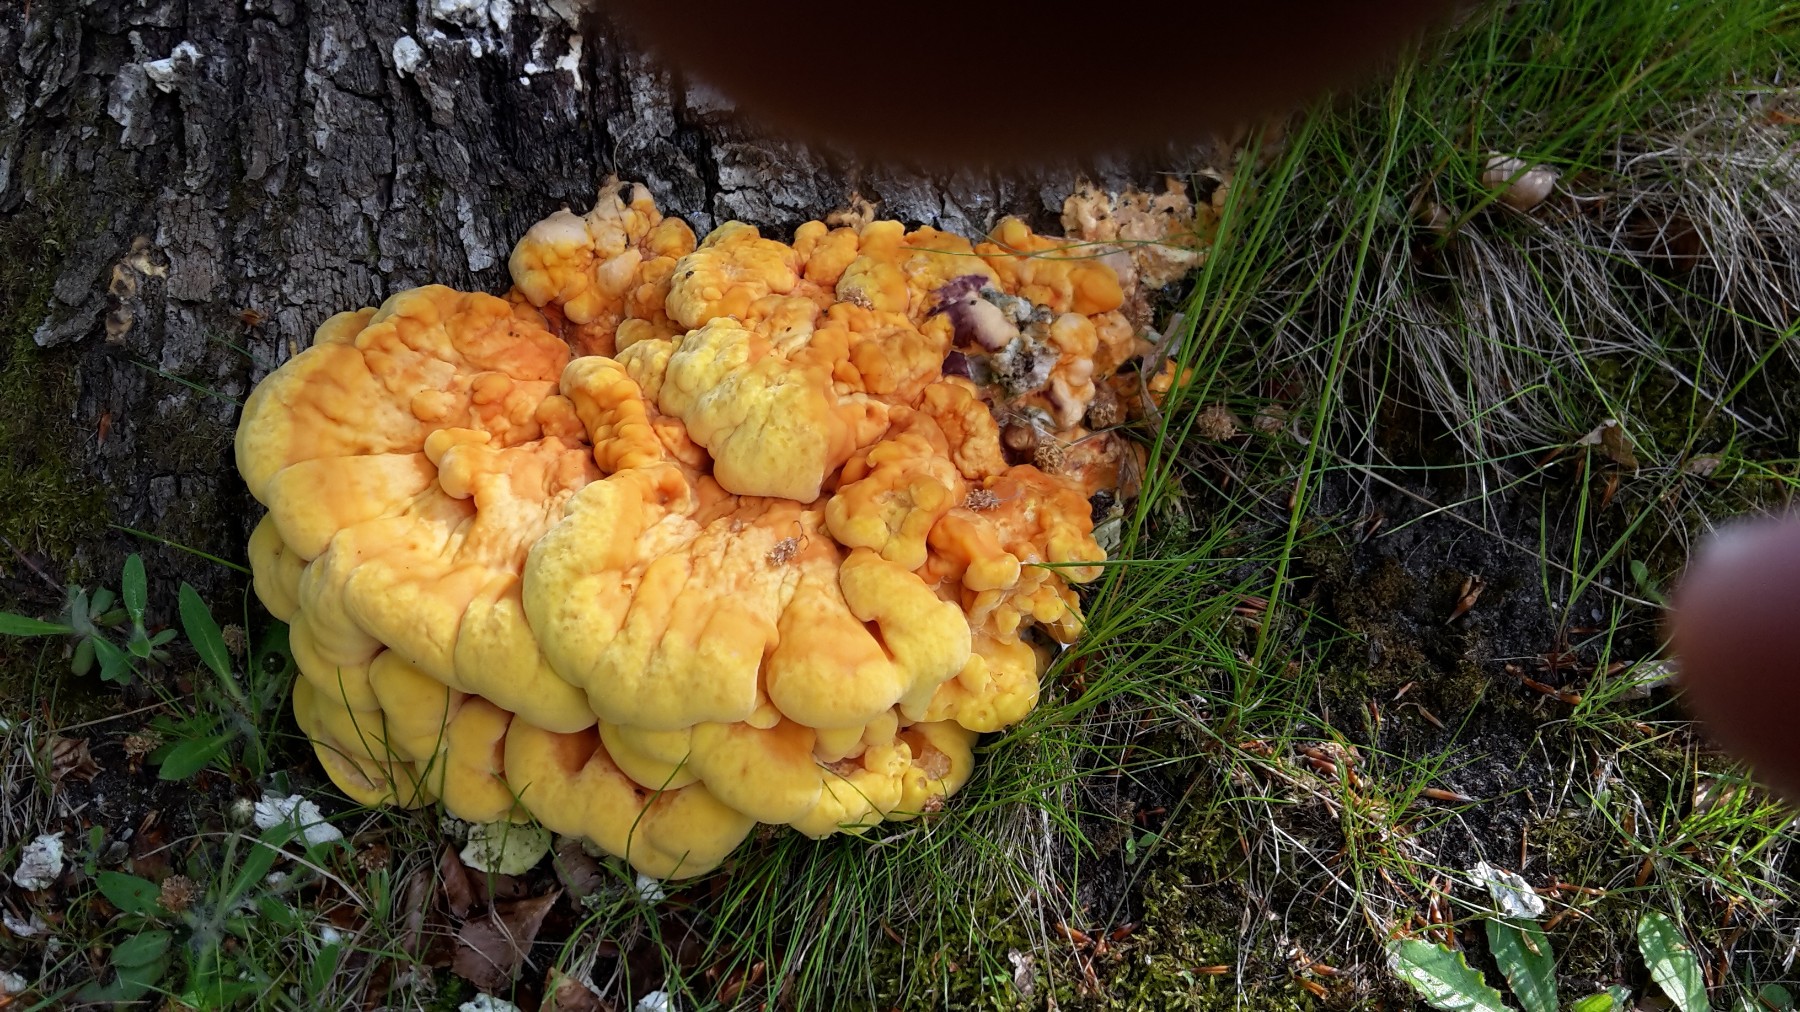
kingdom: Fungi
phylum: Basidiomycota
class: Agaricomycetes
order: Polyporales
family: Laetiporaceae
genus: Laetiporus
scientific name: Laetiporus sulphureus
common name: svovlporesvamp
